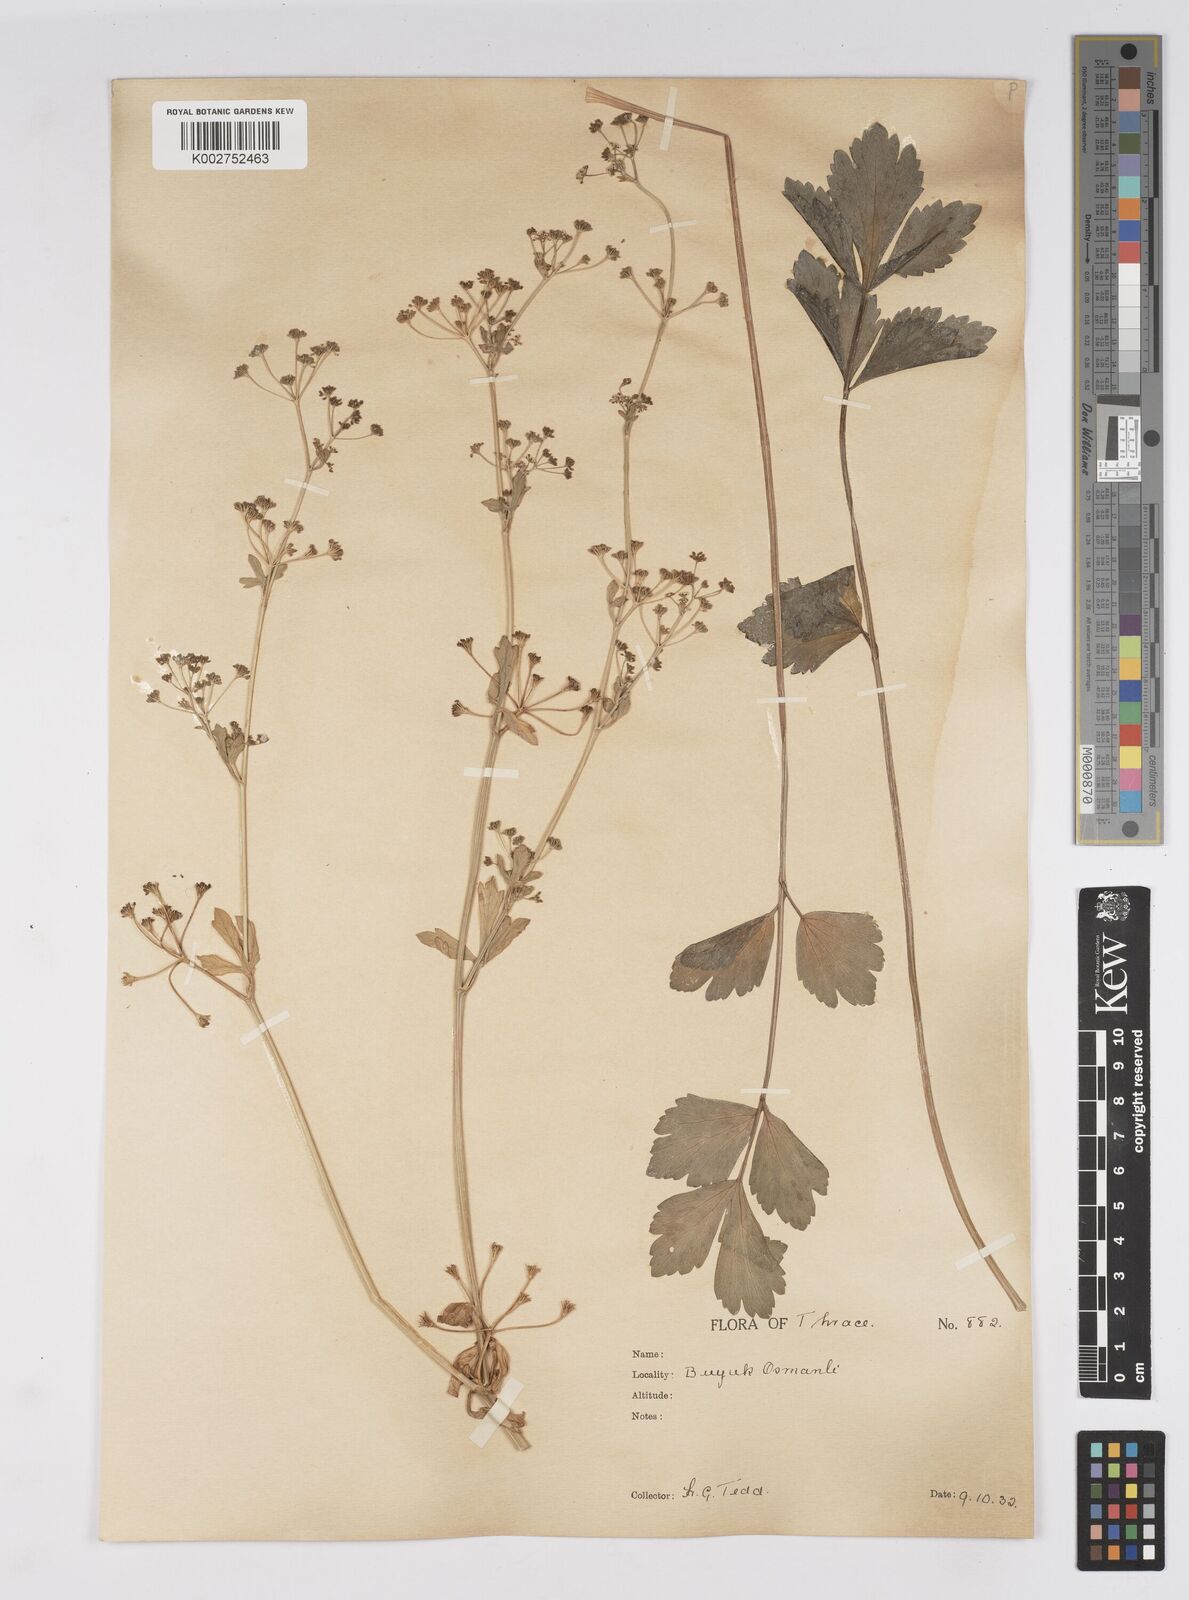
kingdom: Plantae
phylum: Tracheophyta
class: Magnoliopsida
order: Apiales
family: Apiaceae
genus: Apium
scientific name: Apium graveolens
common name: Wild celery
